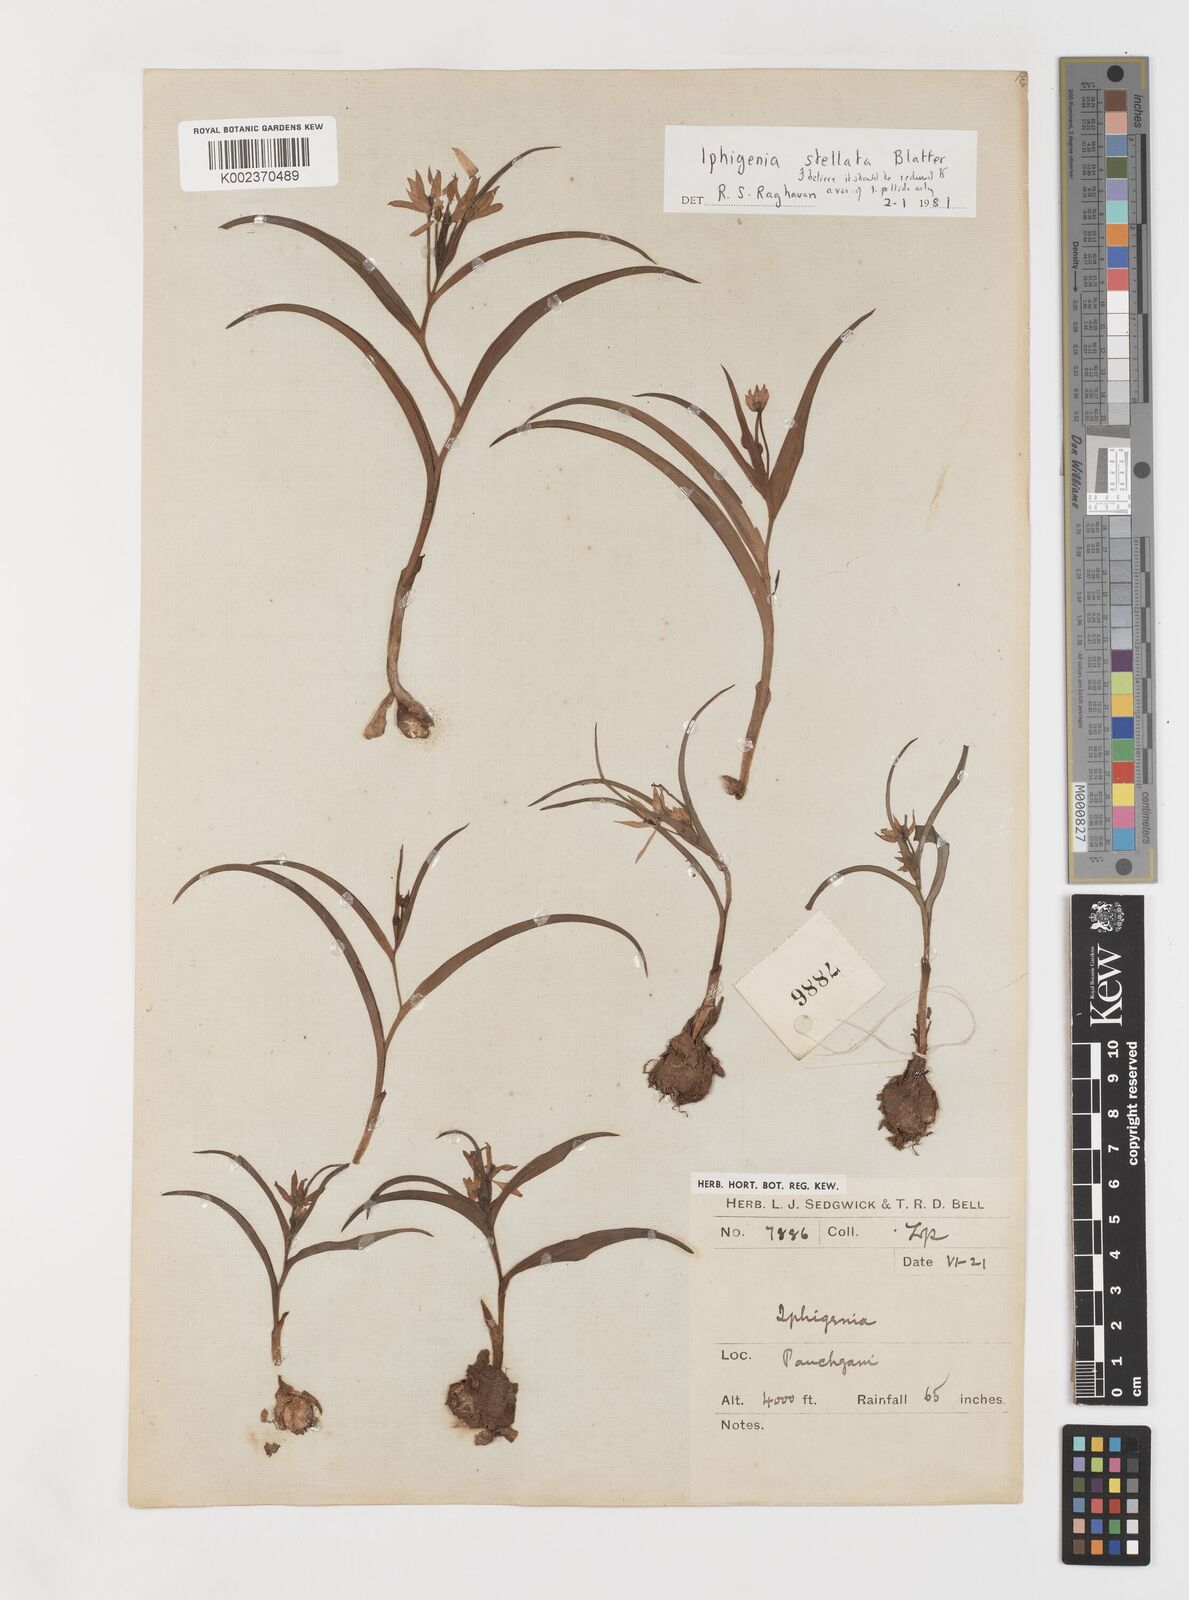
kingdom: Plantae
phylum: Tracheophyta
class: Liliopsida
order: Liliales
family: Colchicaceae
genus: Iphigenia
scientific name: Iphigenia
